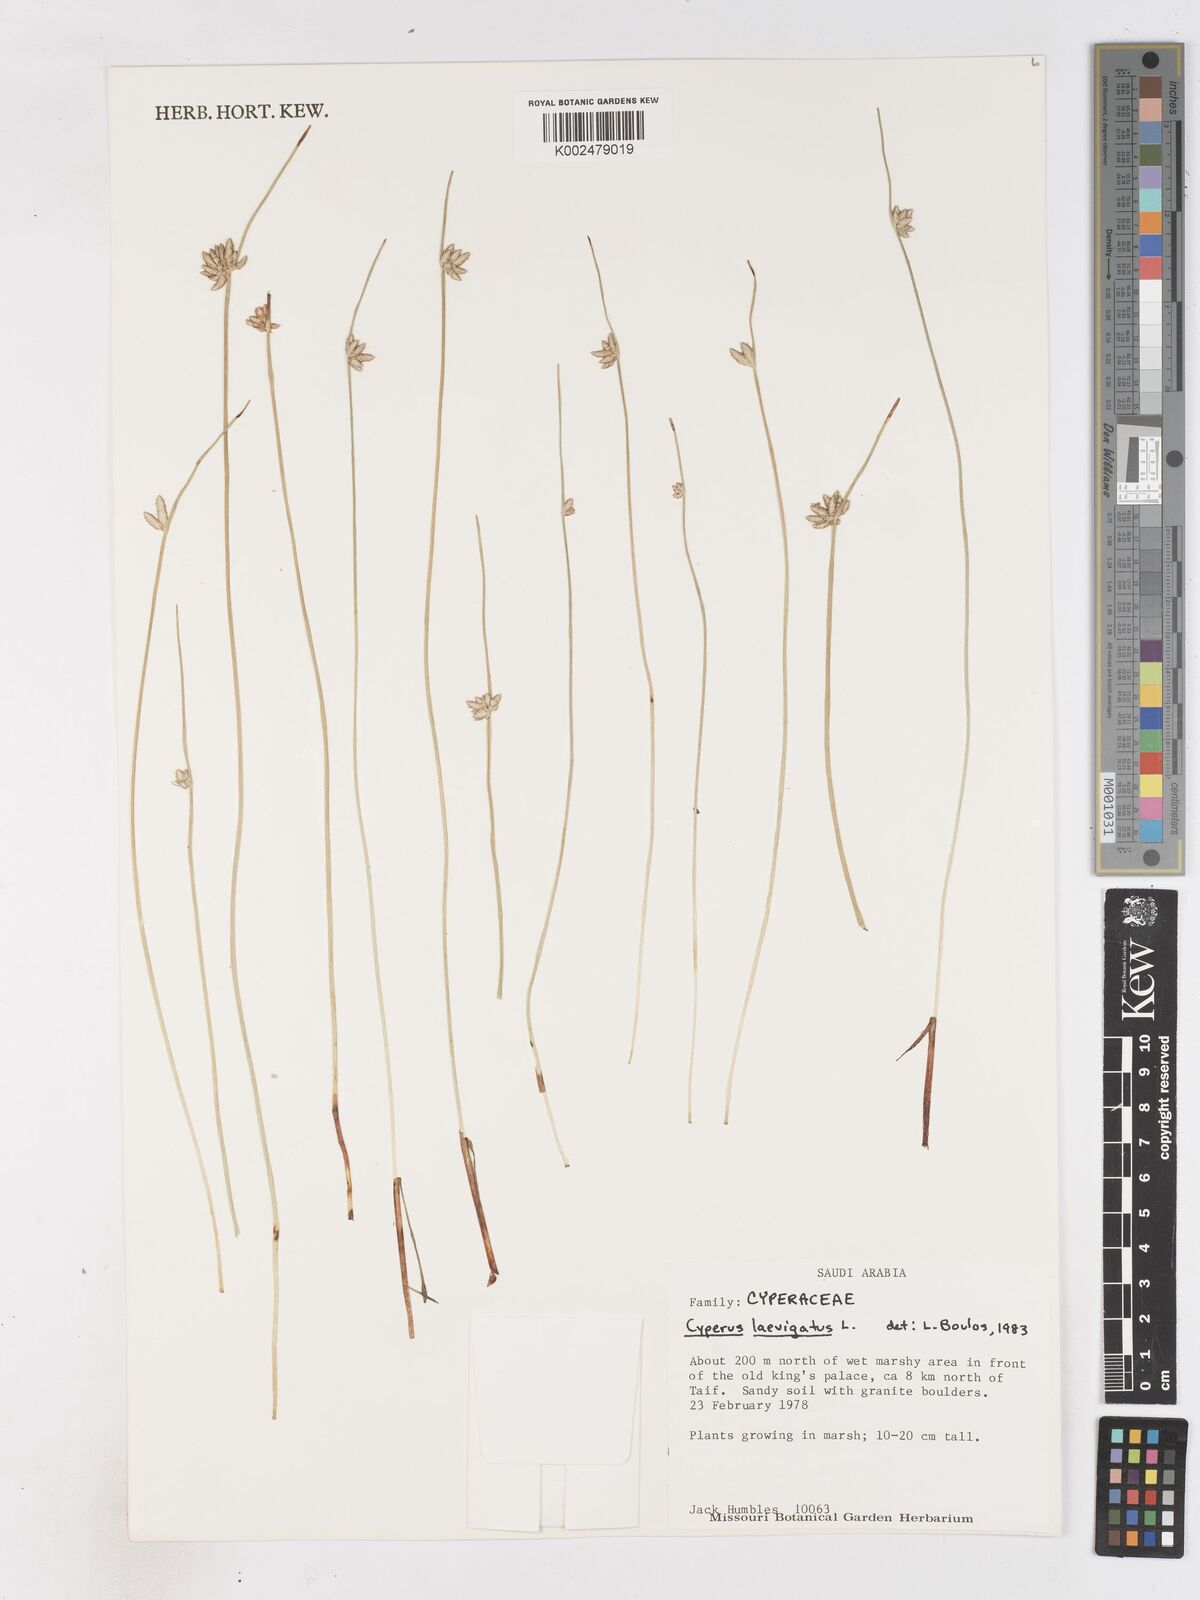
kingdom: Plantae
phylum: Tracheophyta
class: Liliopsida
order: Poales
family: Cyperaceae
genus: Cyperus
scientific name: Cyperus laevigatus
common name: Smooth flat sedge
